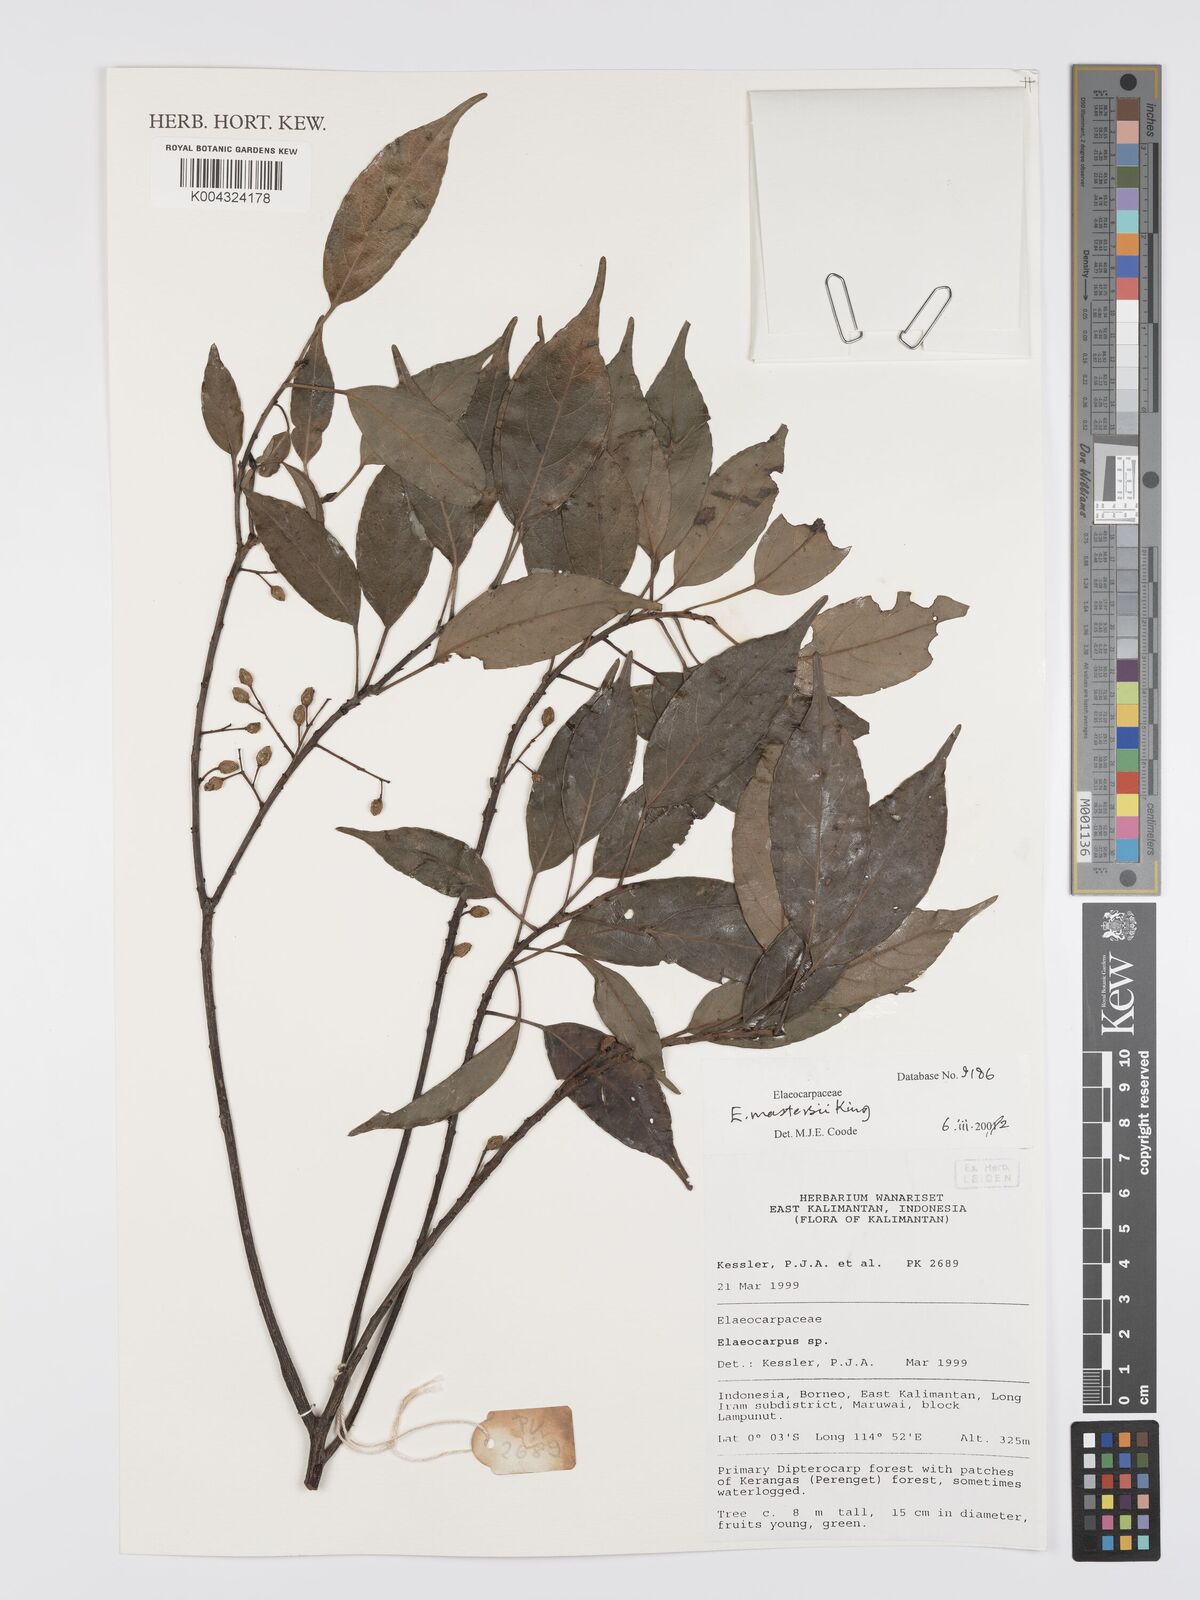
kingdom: Plantae
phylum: Tracheophyta
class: Magnoliopsida
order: Oxalidales
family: Elaeocarpaceae
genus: Elaeocarpus
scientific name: Elaeocarpus mastersii
